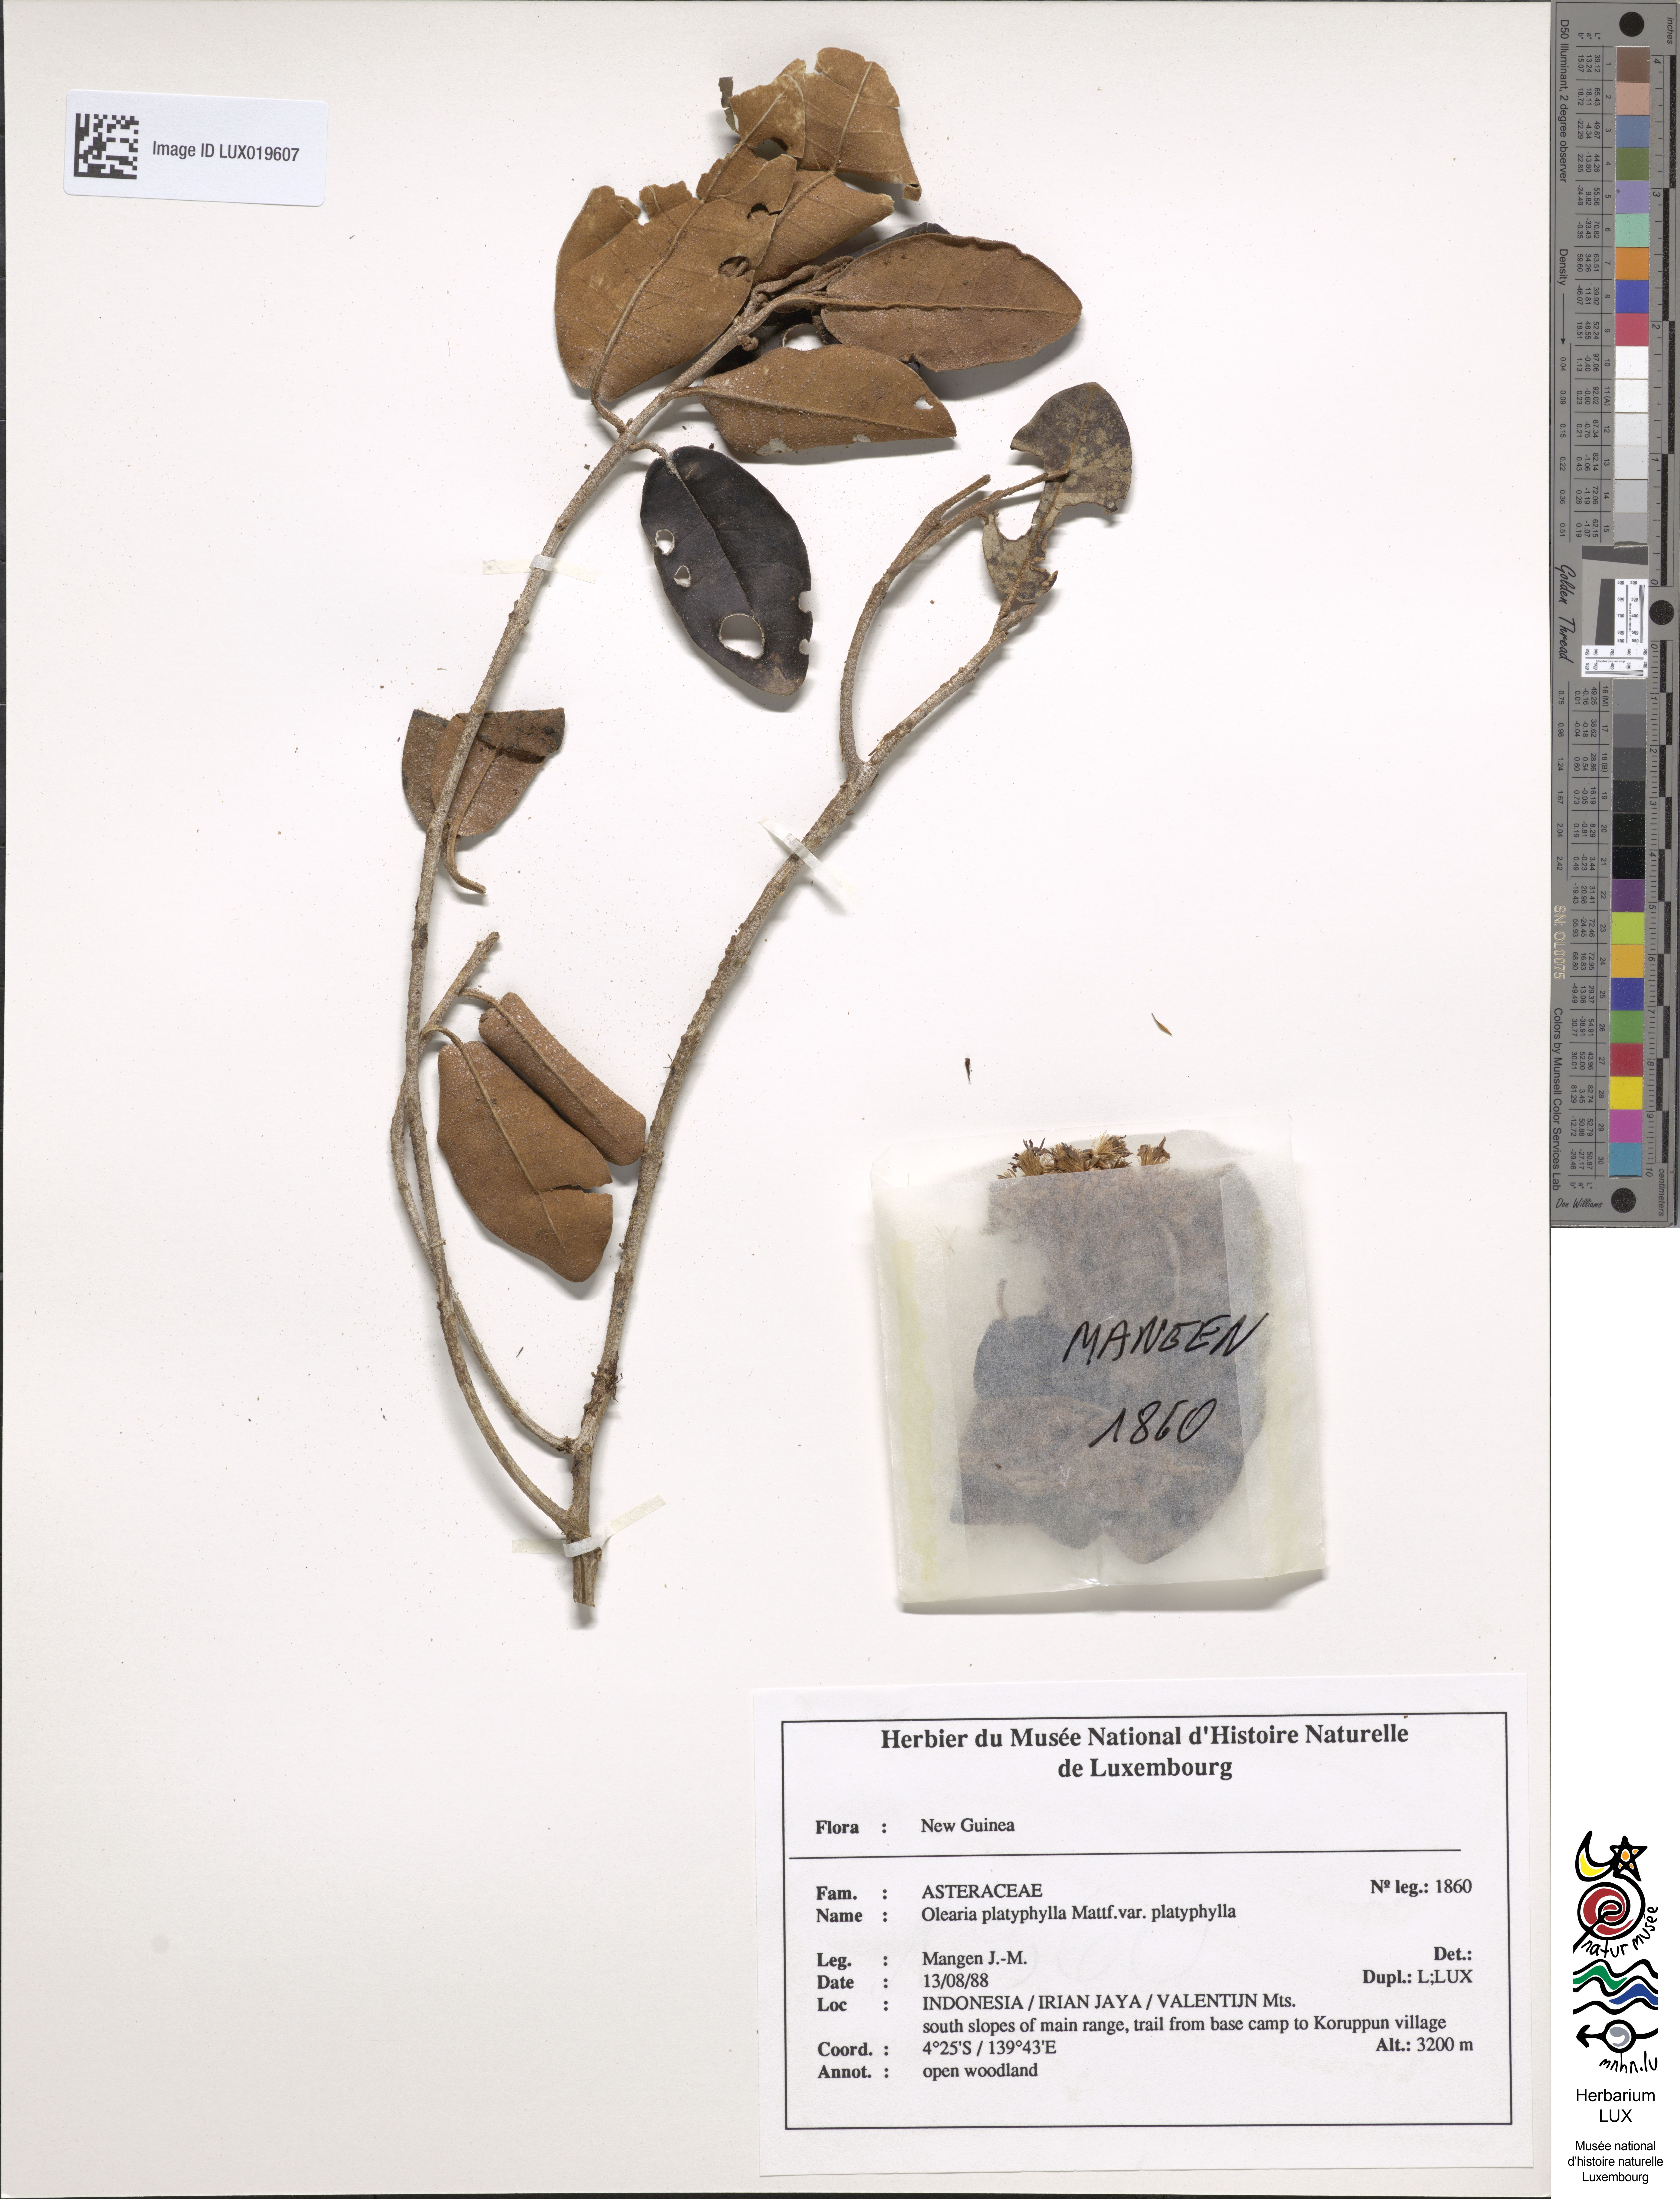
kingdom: Plantae
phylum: Tracheophyta
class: Magnoliopsida
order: Asterales
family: Asteraceae
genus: Olearia
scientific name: Olearia platyphylla
